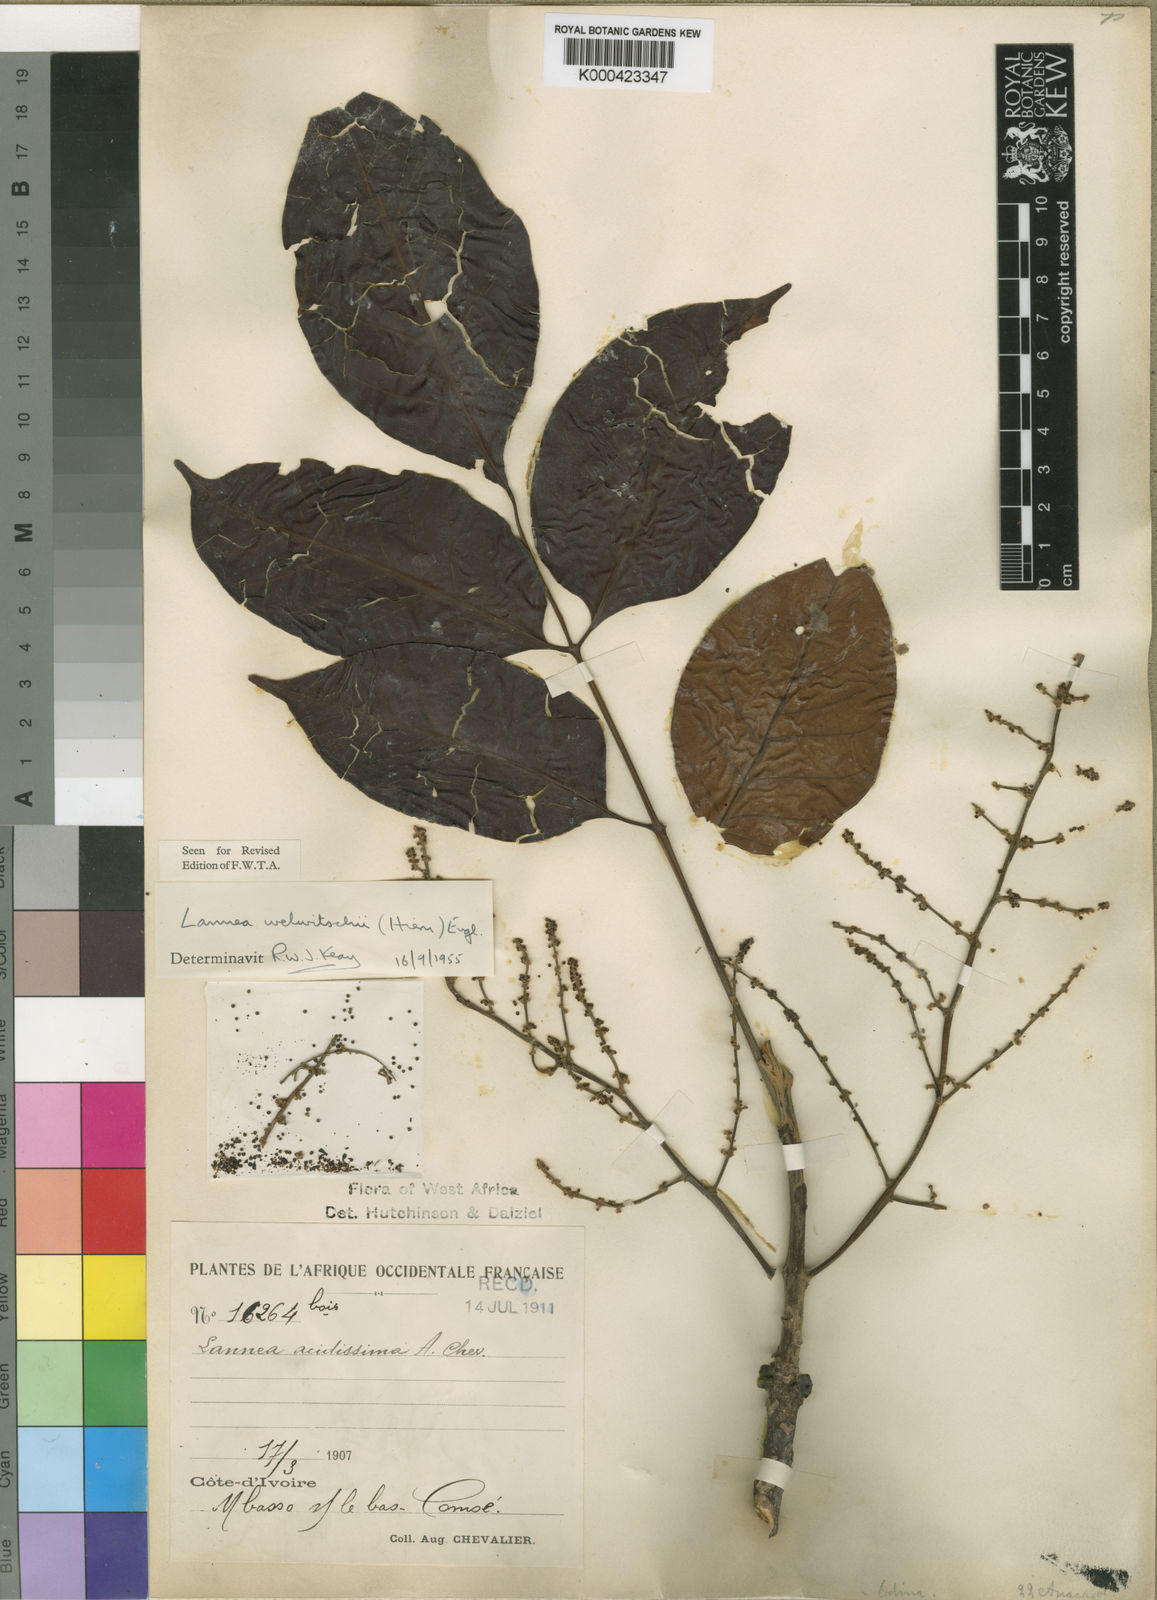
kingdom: Plantae
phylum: Tracheophyta
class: Magnoliopsida
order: Sapindales
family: Anacardiaceae
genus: Lannea
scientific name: Lannea welwitschii
